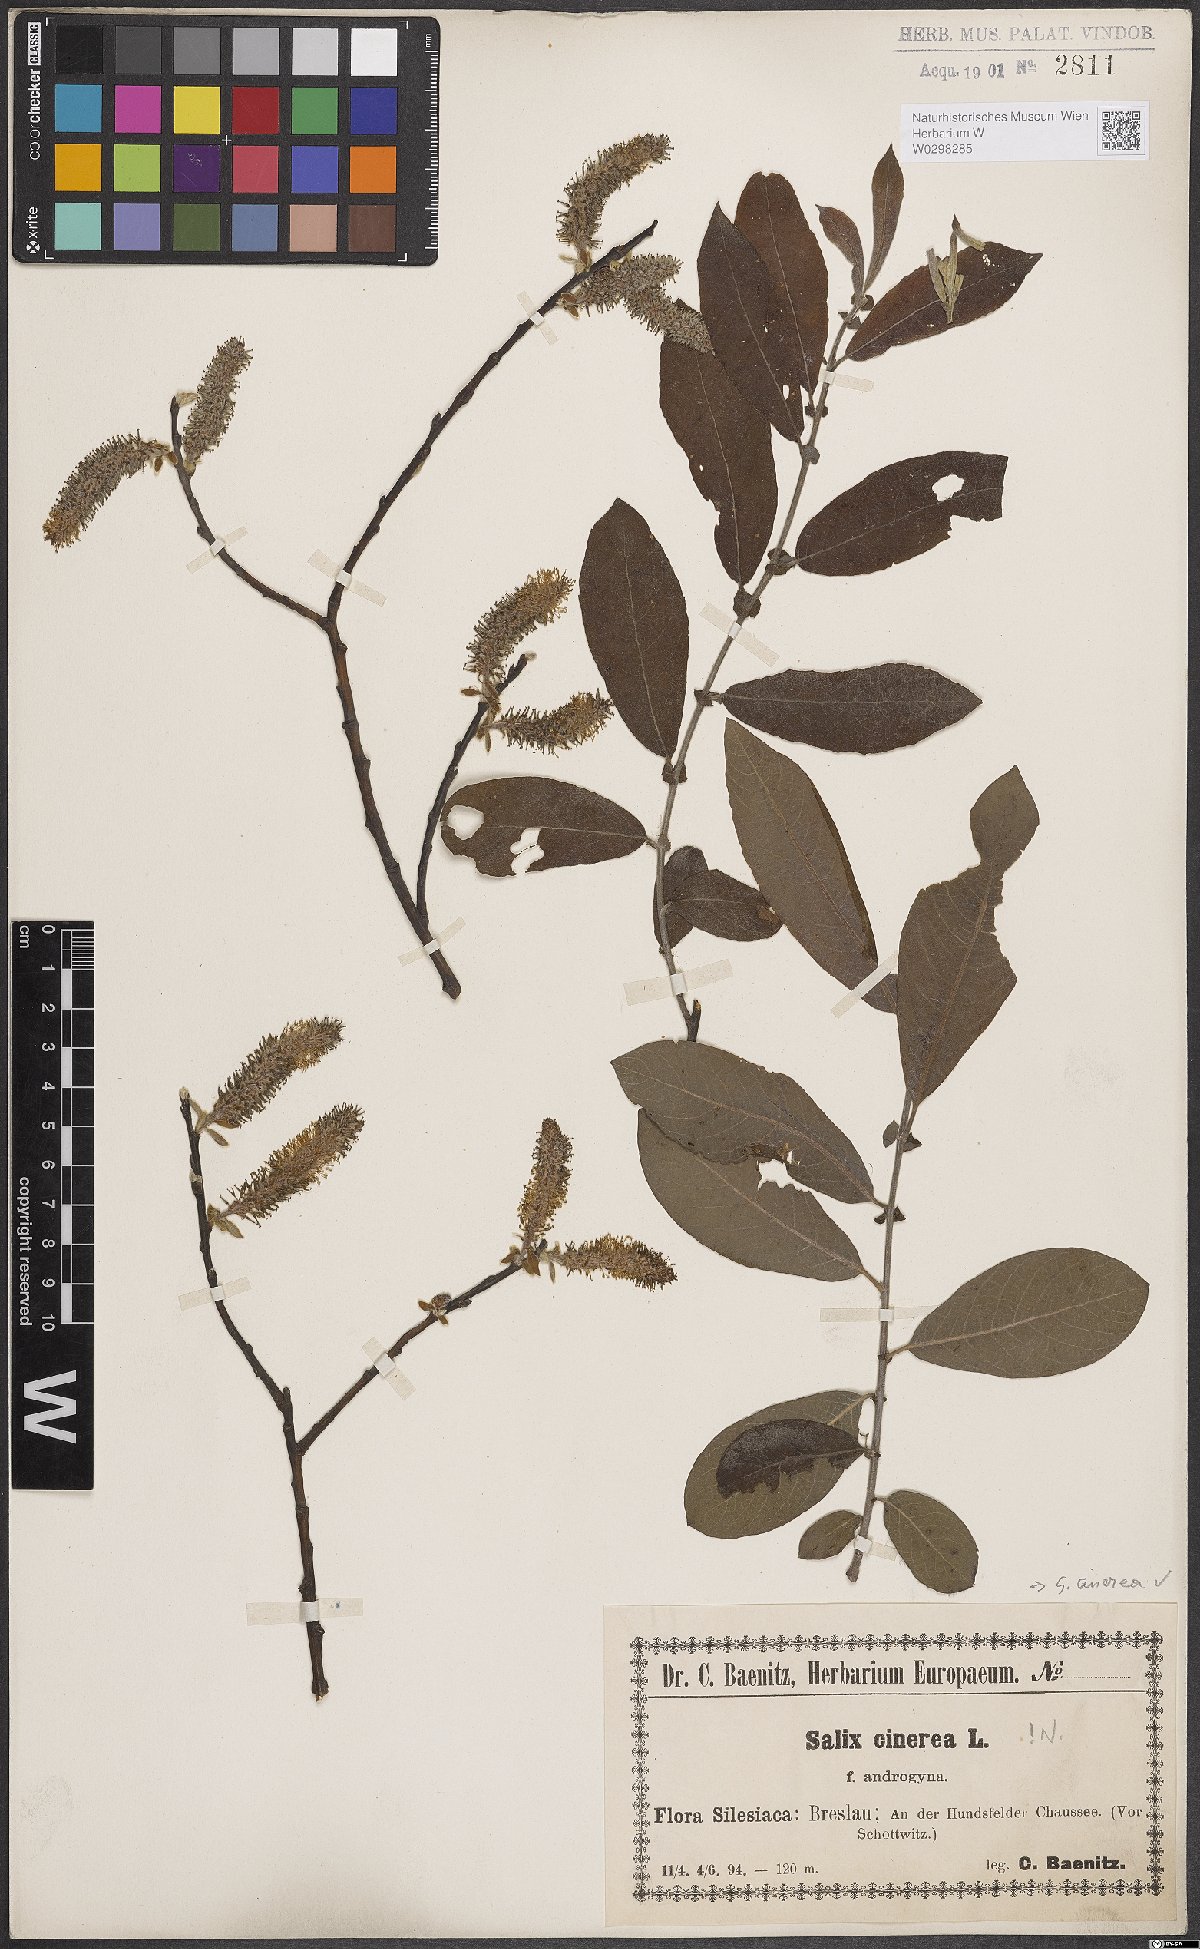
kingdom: Plantae
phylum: Tracheophyta
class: Magnoliopsida
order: Malpighiales
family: Salicaceae
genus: Salix
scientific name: Salix cinerea
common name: Common sallow
